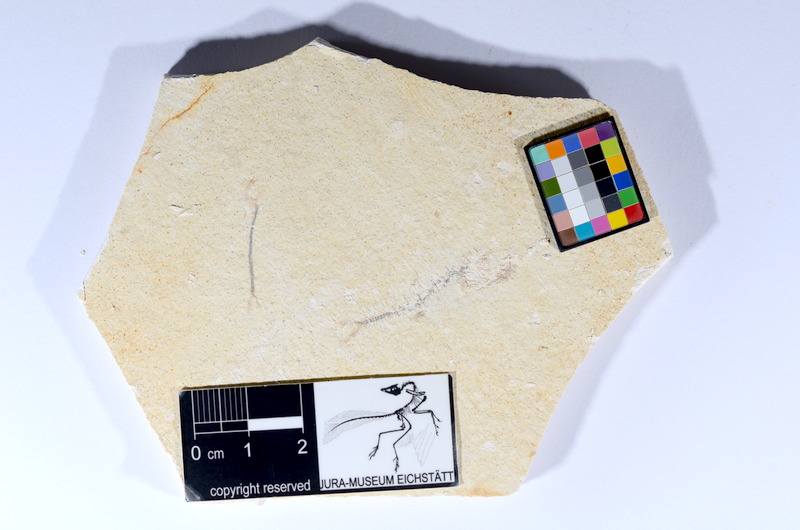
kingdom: Animalia
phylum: Chordata
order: Salmoniformes
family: Orthogonikleithridae
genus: Orthogonikleithrus
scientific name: Orthogonikleithrus hoelli
